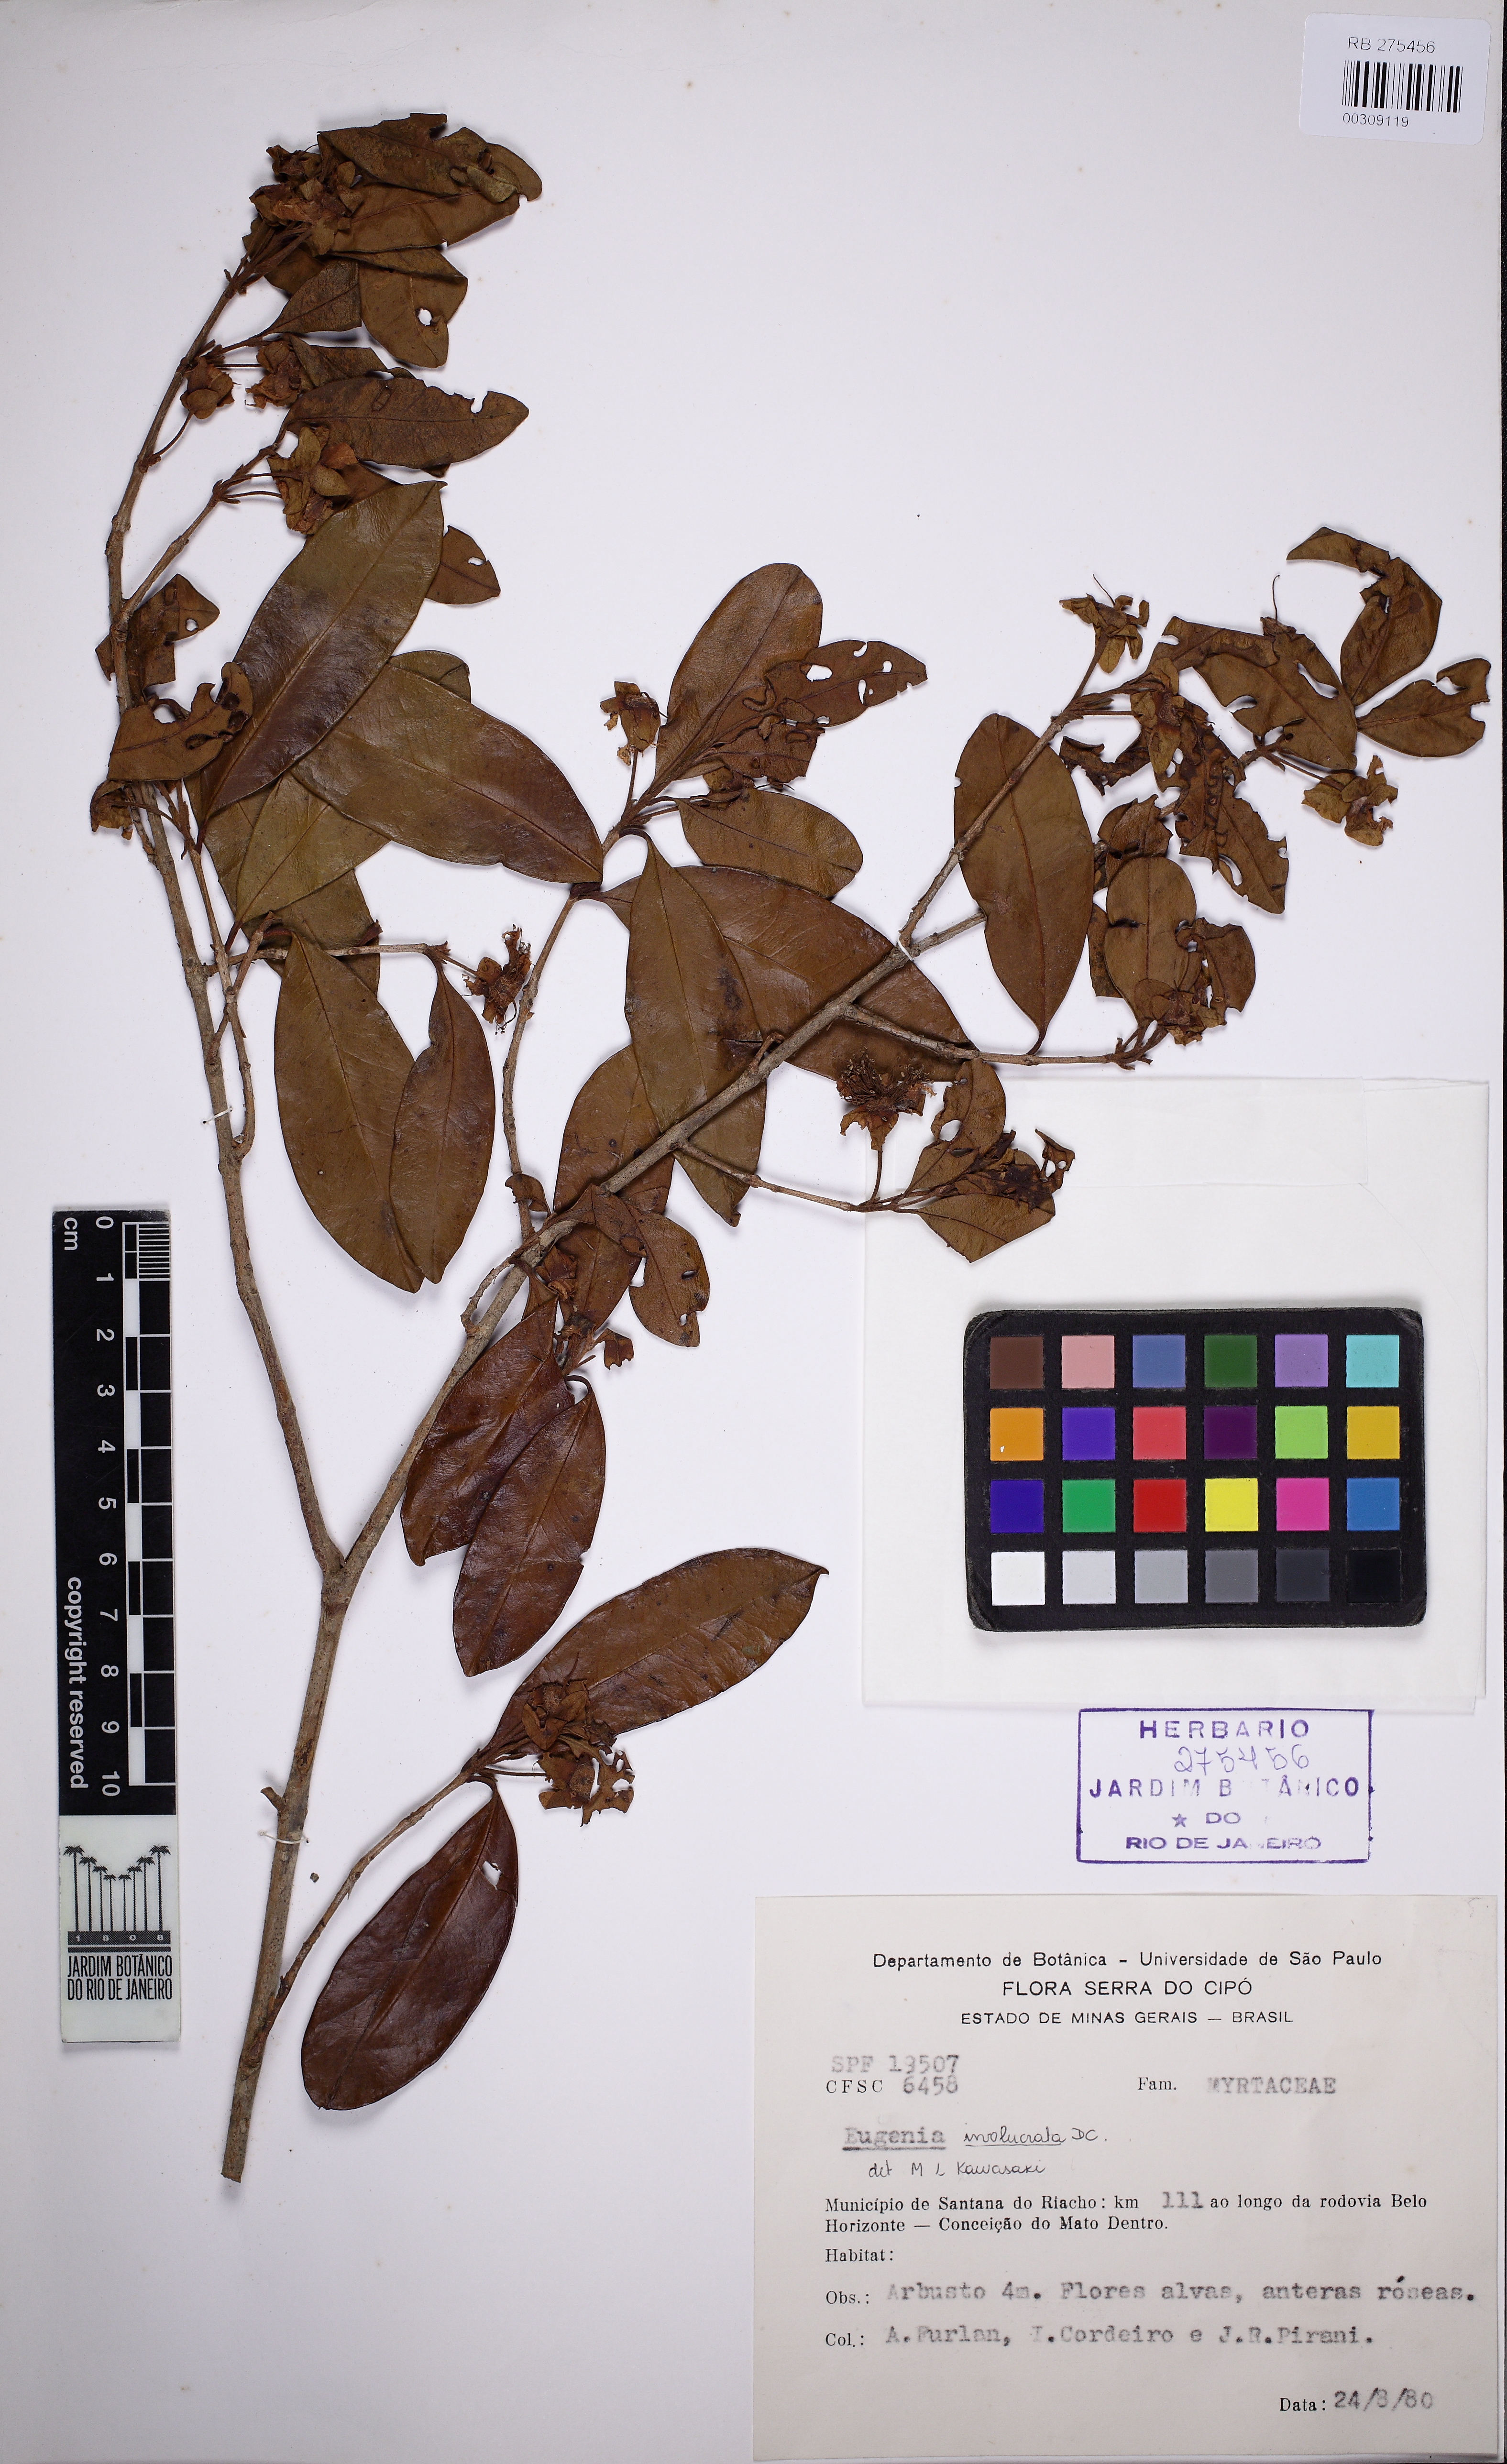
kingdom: Plantae
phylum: Tracheophyta
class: Magnoliopsida
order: Myrtales
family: Myrtaceae
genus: Eugenia
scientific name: Eugenia involucrata
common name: Cherry-of-the-rio grande
